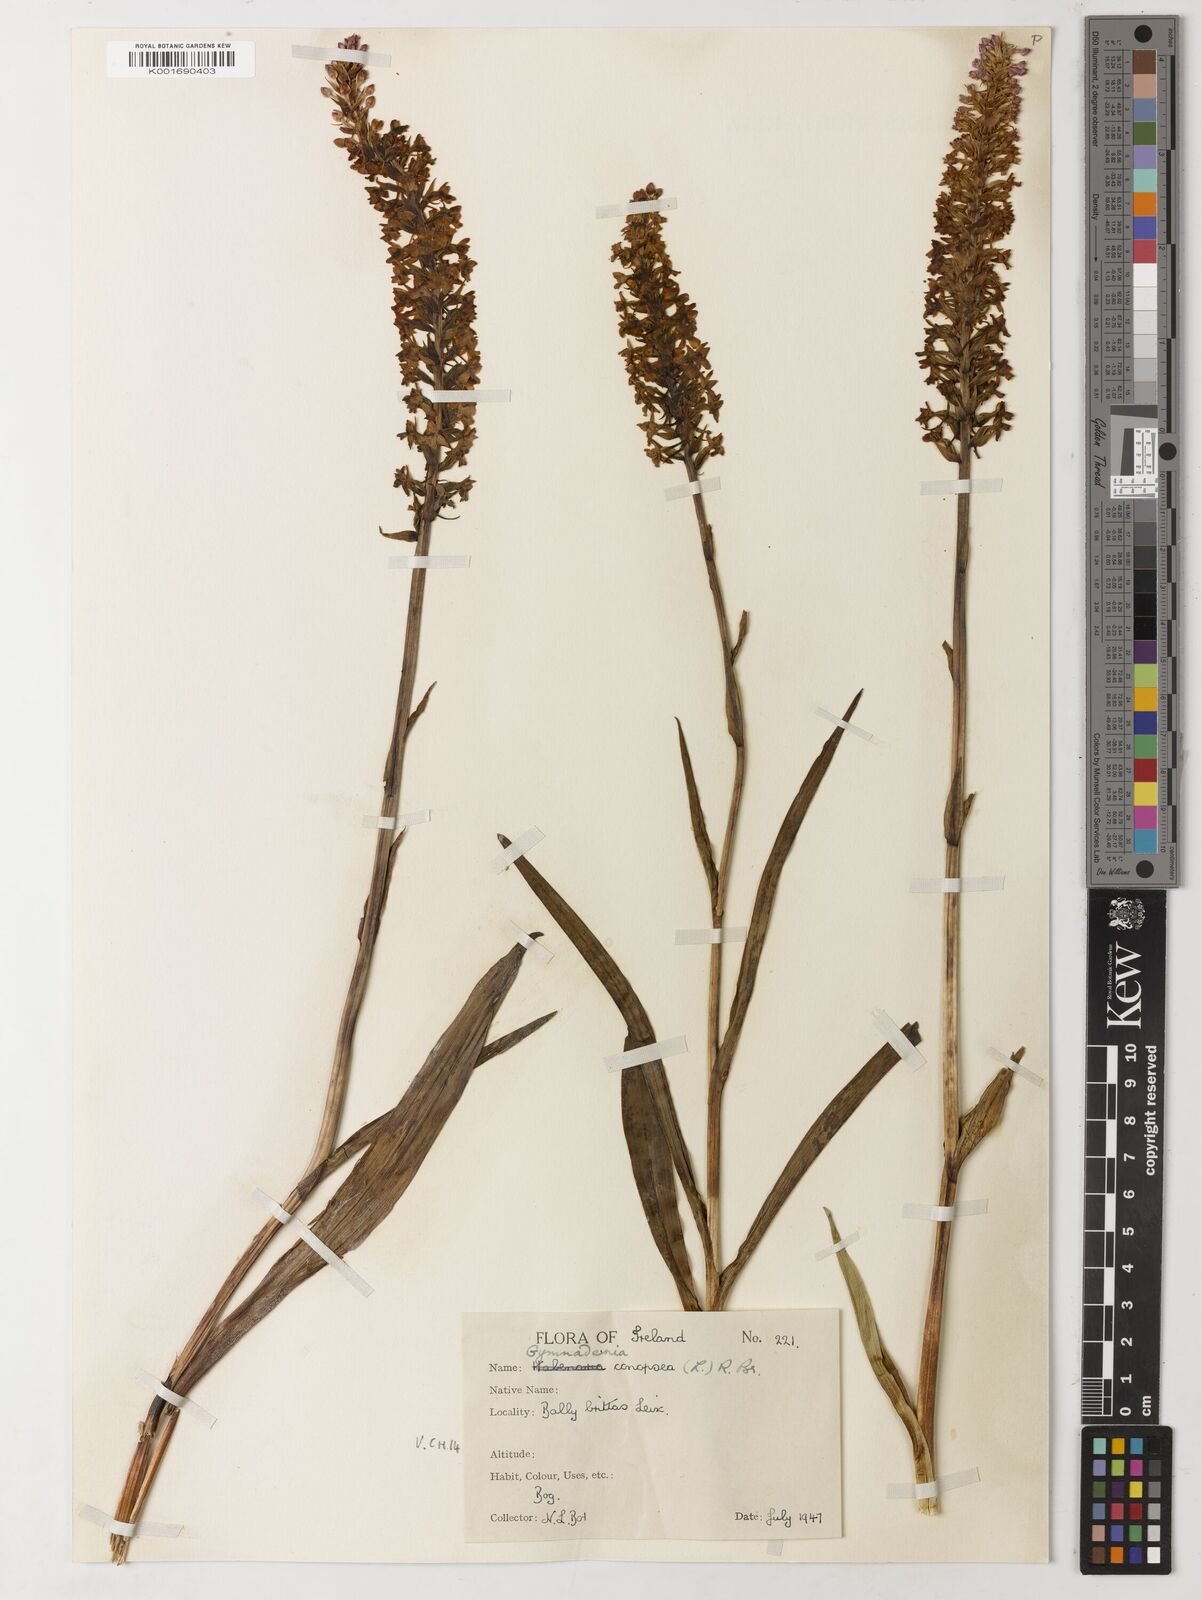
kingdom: Plantae
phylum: Tracheophyta
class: Magnoliopsida
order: Fabales
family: Fabaceae
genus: Platymiscium
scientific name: Platymiscium floribundum
